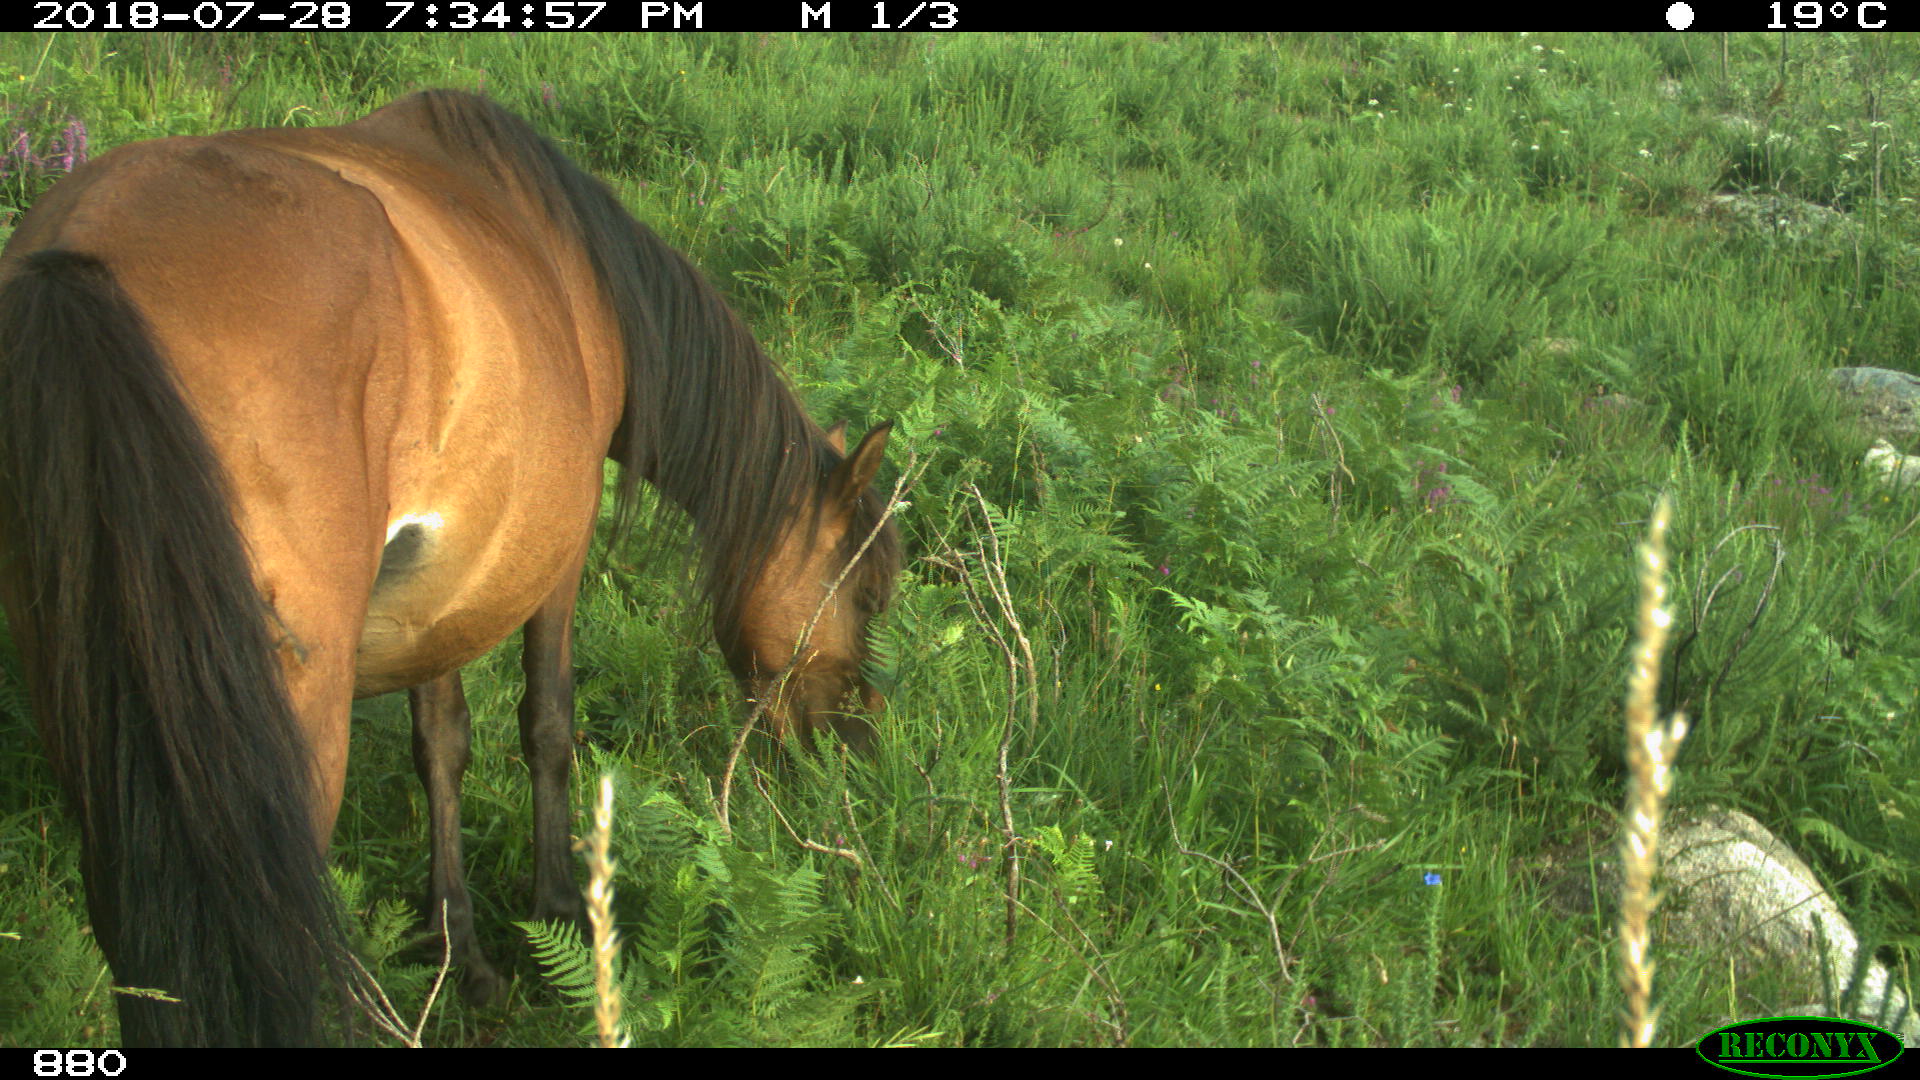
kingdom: Animalia
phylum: Chordata
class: Mammalia
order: Perissodactyla
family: Equidae
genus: Equus
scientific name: Equus caballus
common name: Horse
